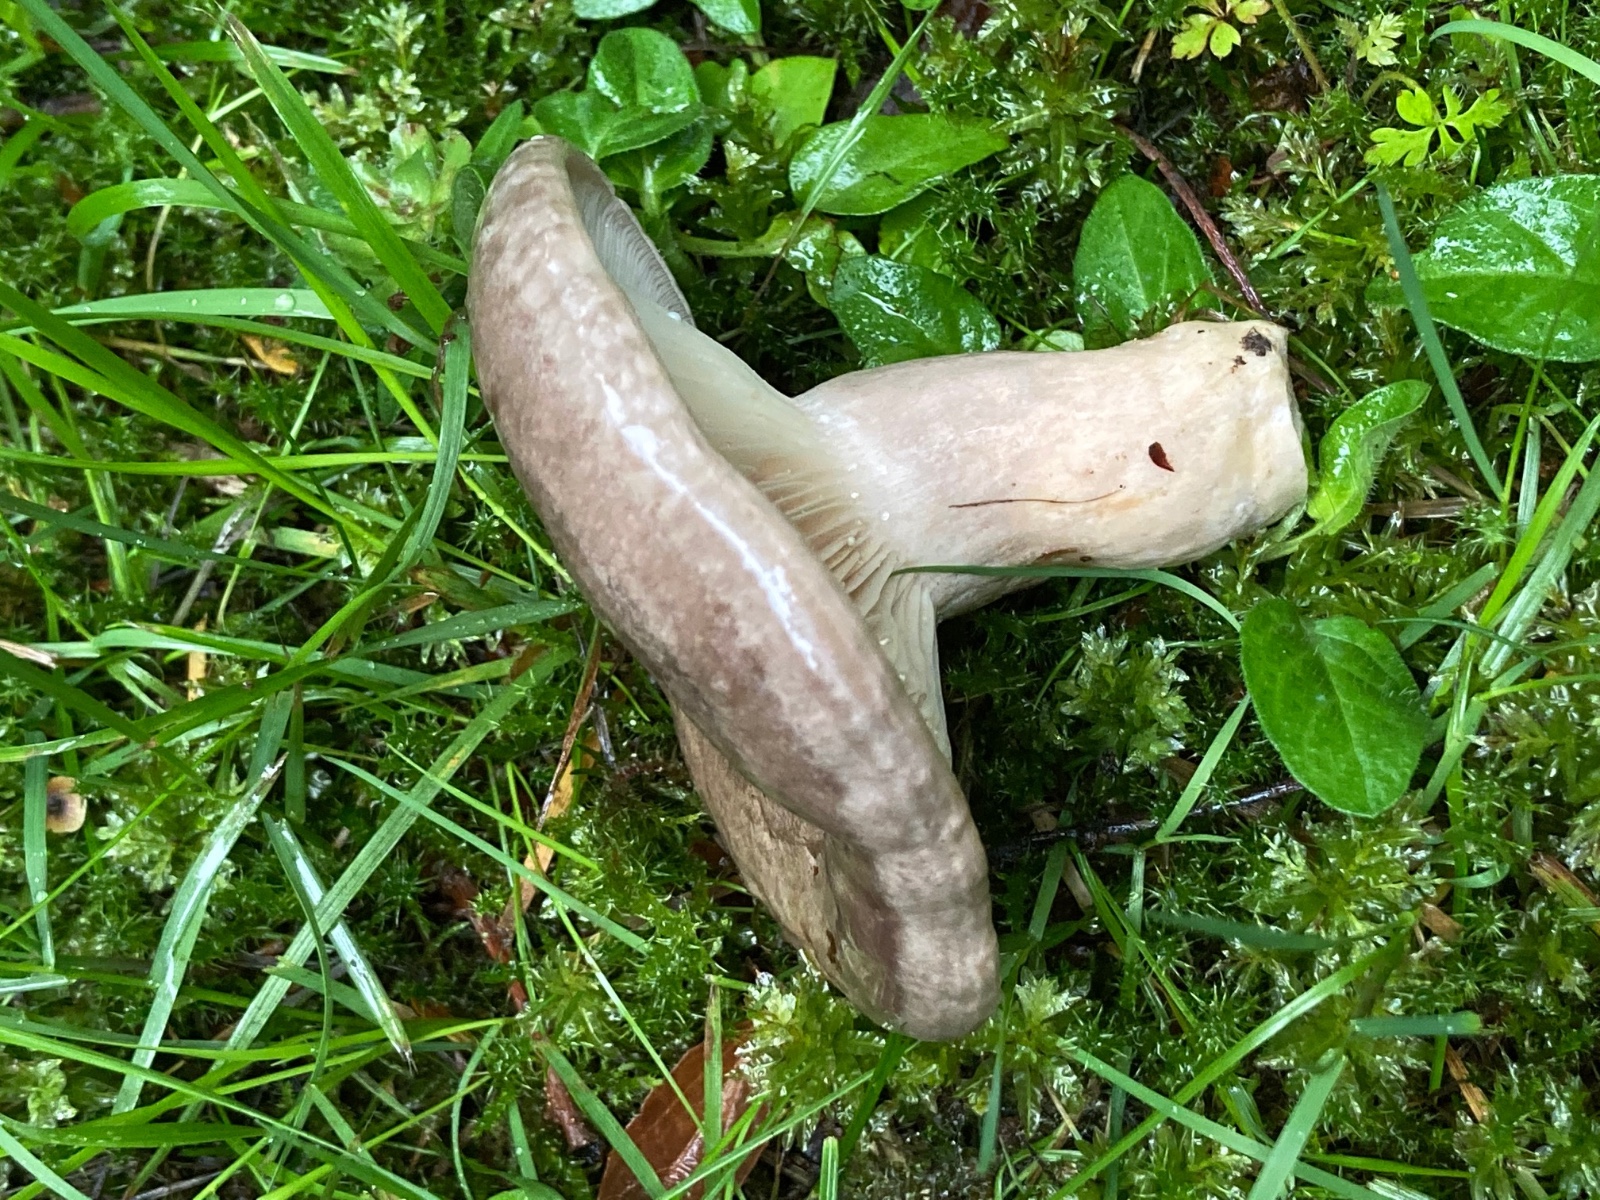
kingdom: Fungi
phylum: Basidiomycota
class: Agaricomycetes
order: Russulales
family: Russulaceae
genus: Lactarius
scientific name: Lactarius circellatus
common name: avnbøg-mælkehat
